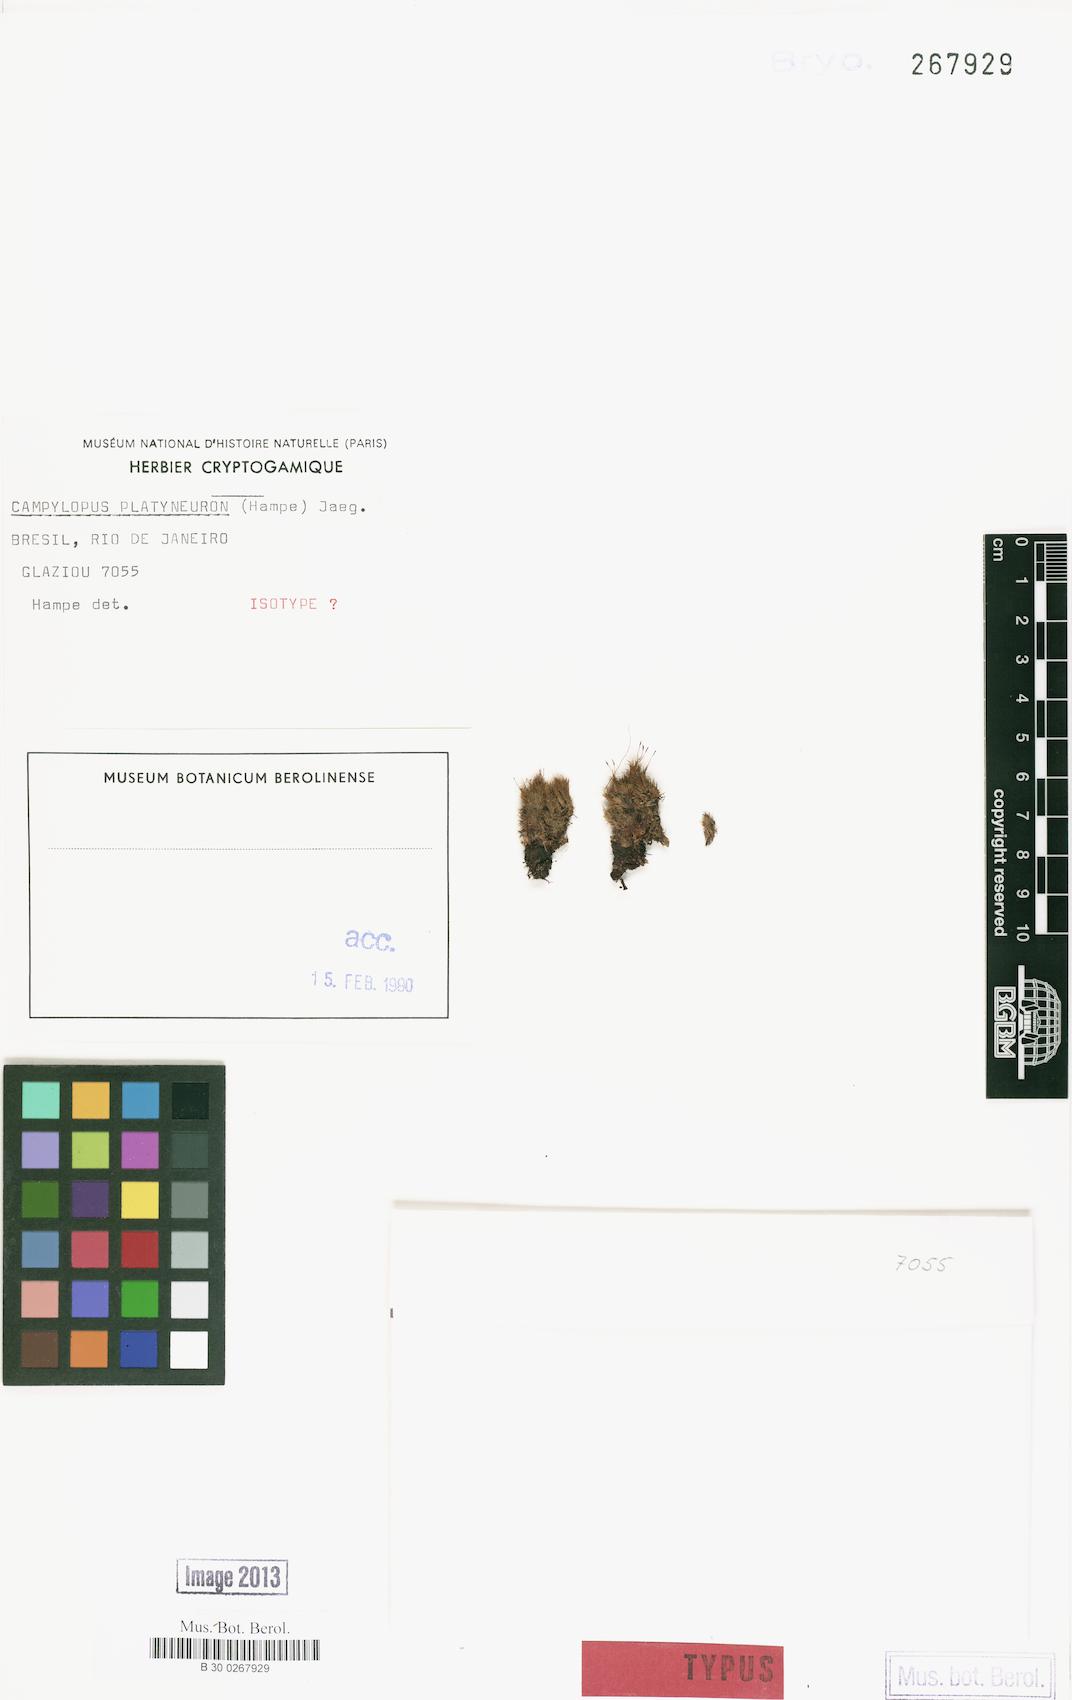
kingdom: Plantae
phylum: Bryophyta
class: Bryopsida
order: Dicranales
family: Leucobryaceae
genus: Campylopus
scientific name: Campylopus occultus
